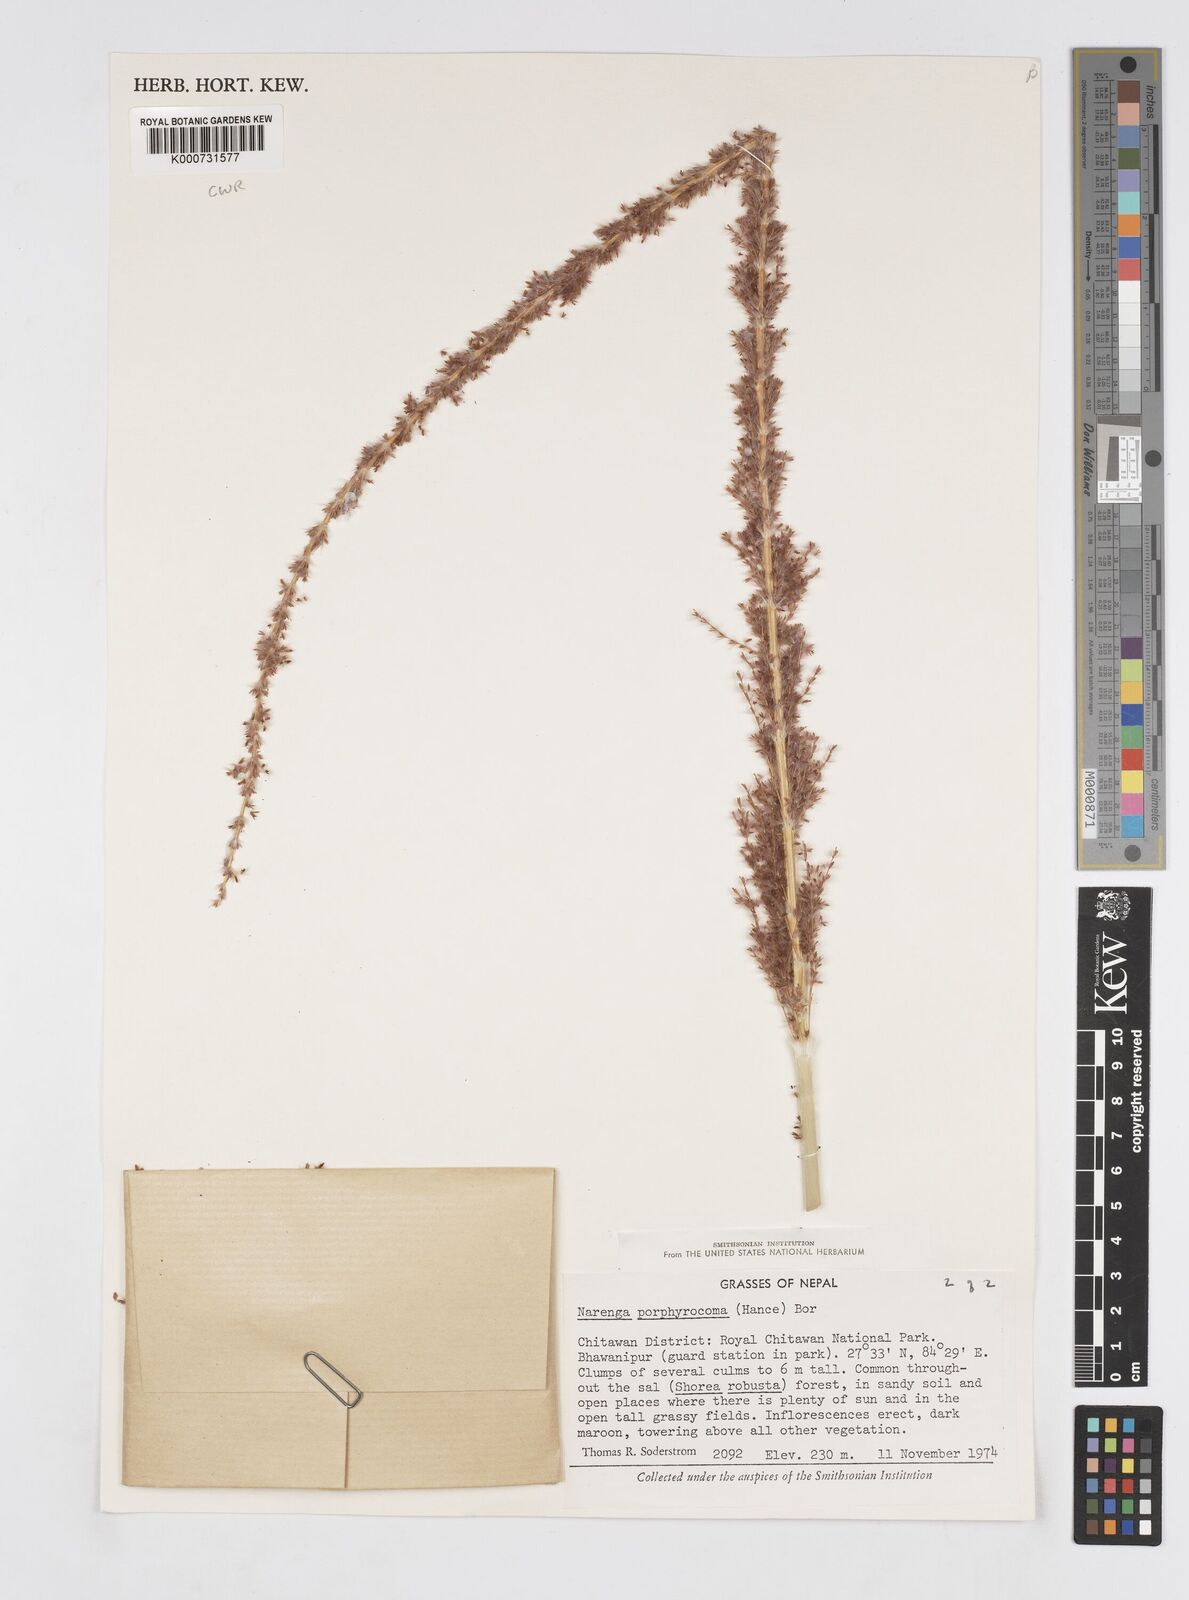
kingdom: Plantae
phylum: Tracheophyta
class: Liliopsida
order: Poales
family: Poaceae
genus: Narenga
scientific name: Narenga porphyrocoma
